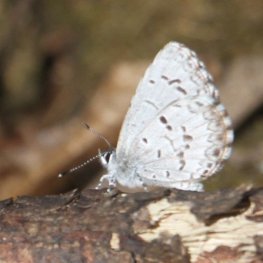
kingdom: Animalia
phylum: Arthropoda
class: Insecta
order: Lepidoptera
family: Lycaenidae
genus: Celastrina
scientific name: Celastrina lucia
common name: Northern Spring Azure
